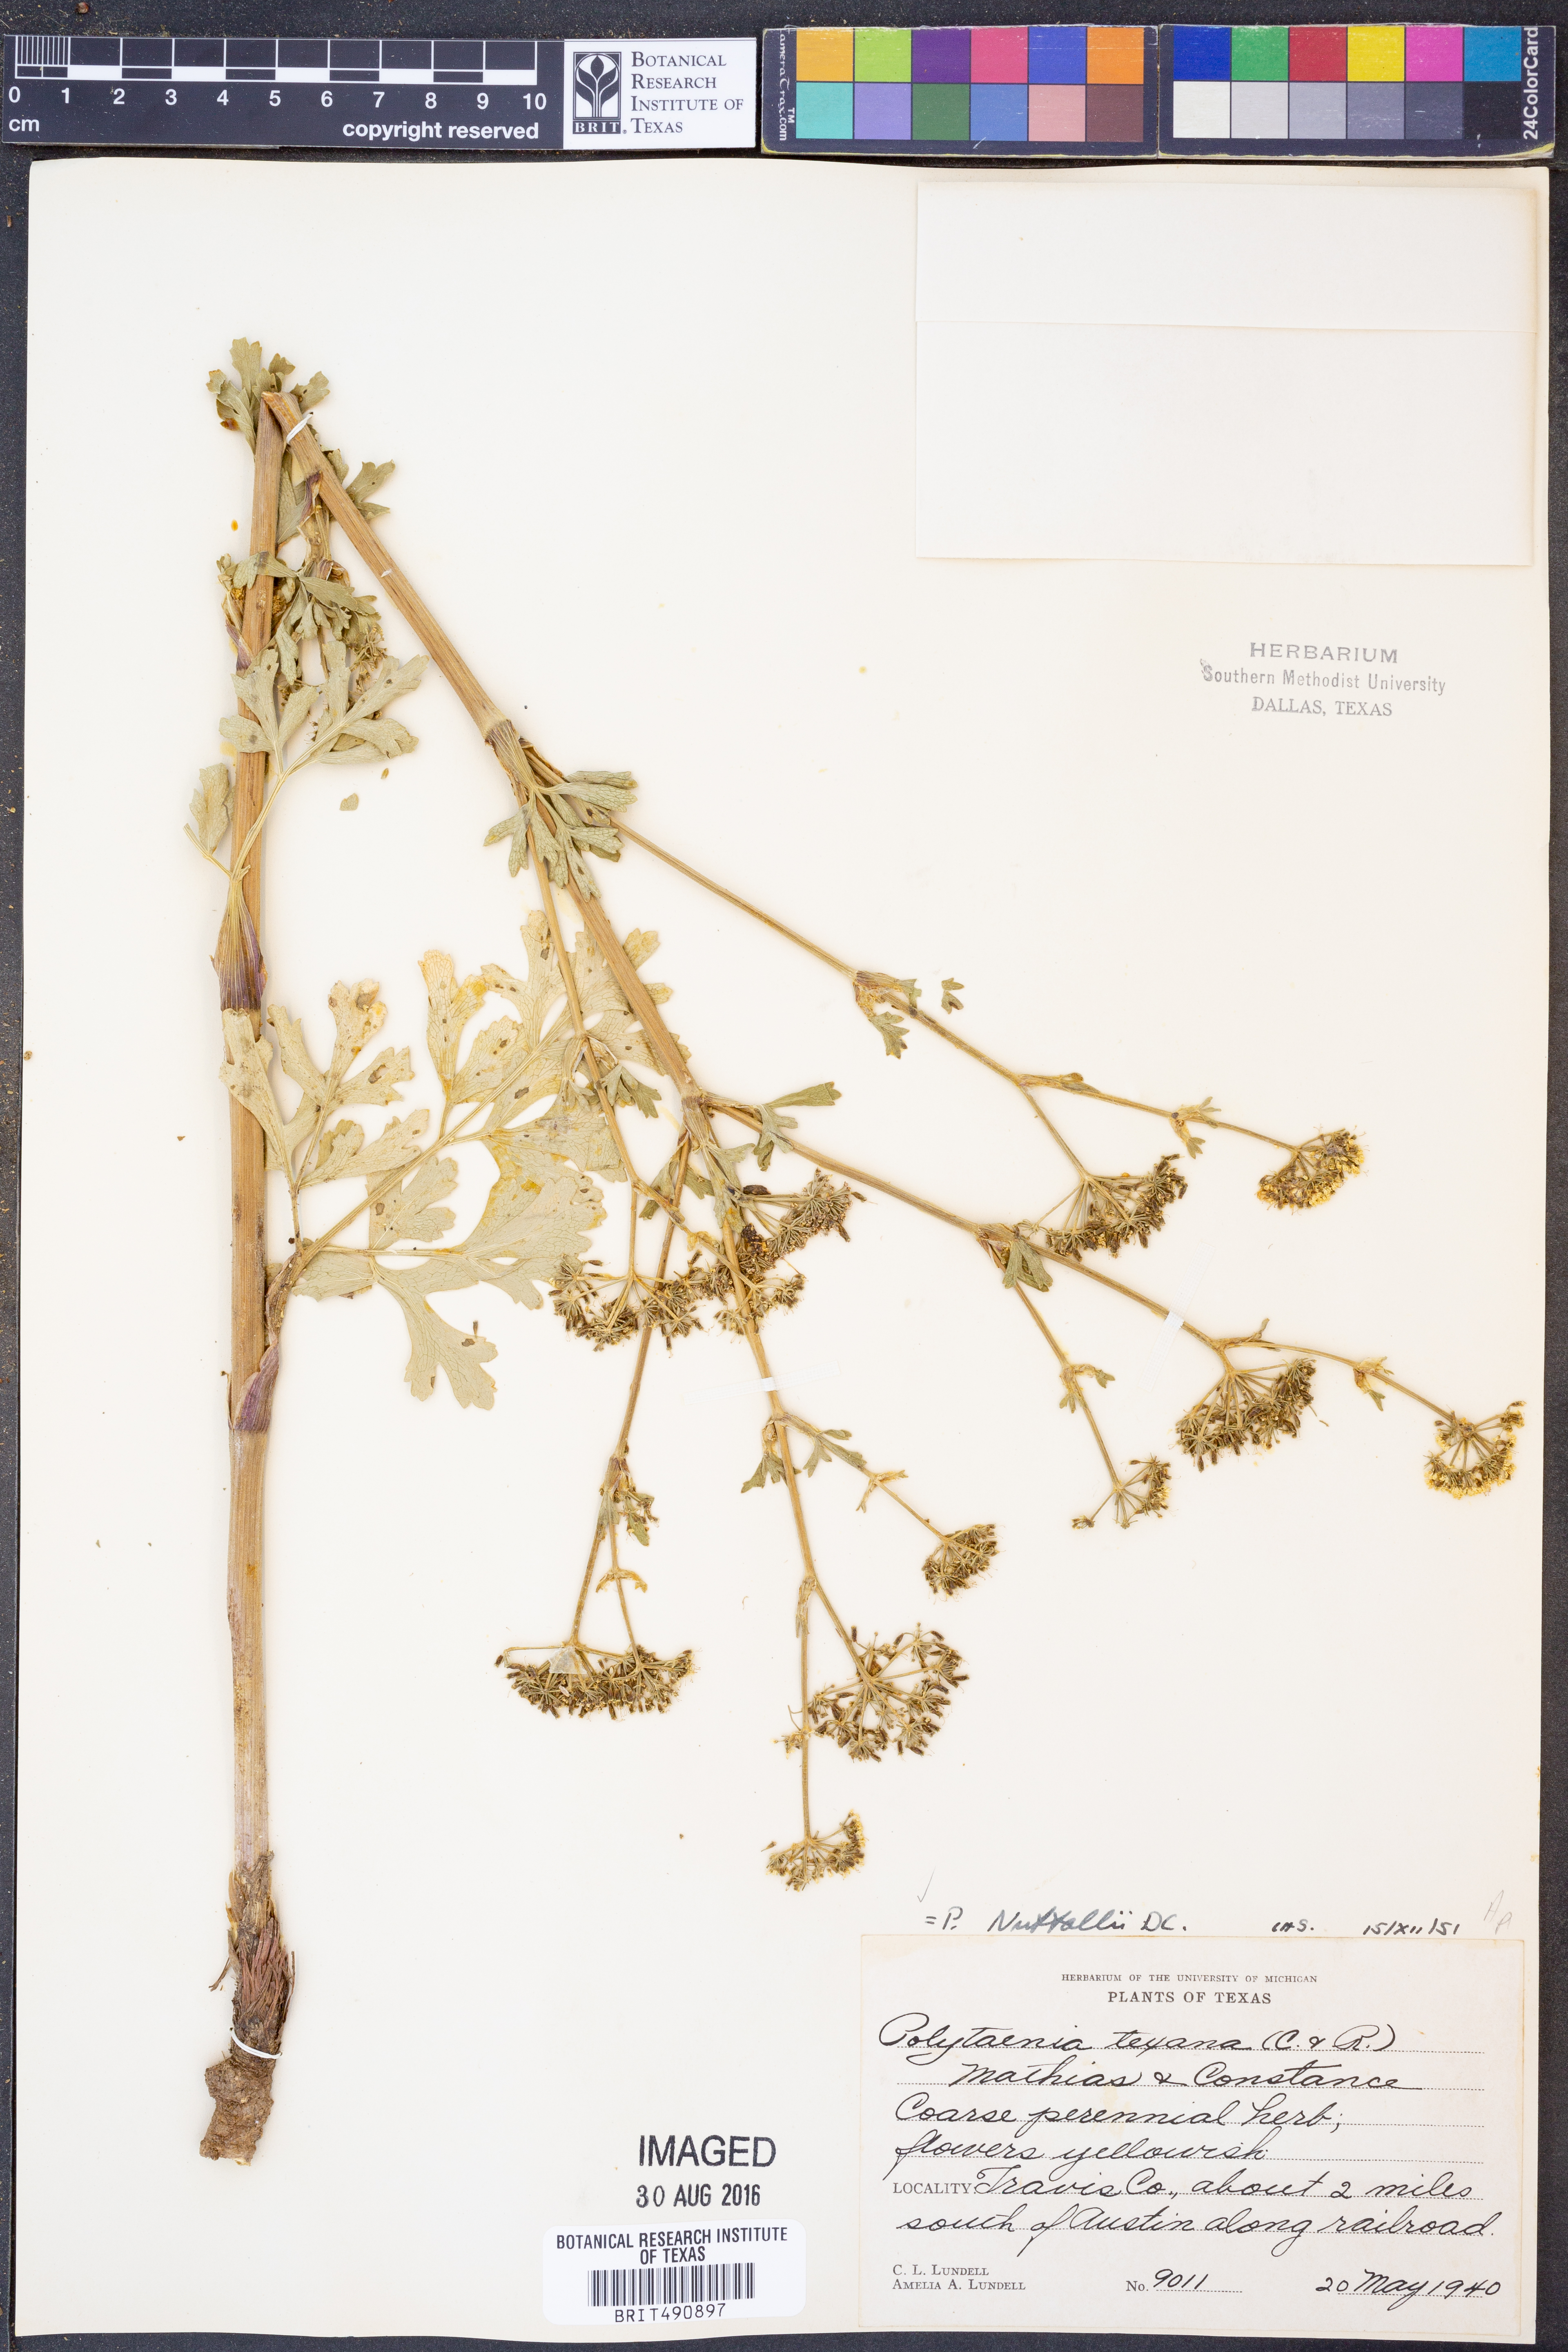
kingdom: Plantae
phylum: Tracheophyta
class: Magnoliopsida
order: Apiales
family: Apiaceae
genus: Polytaenia
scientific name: Polytaenia nuttallii
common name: Prairie-parsley
